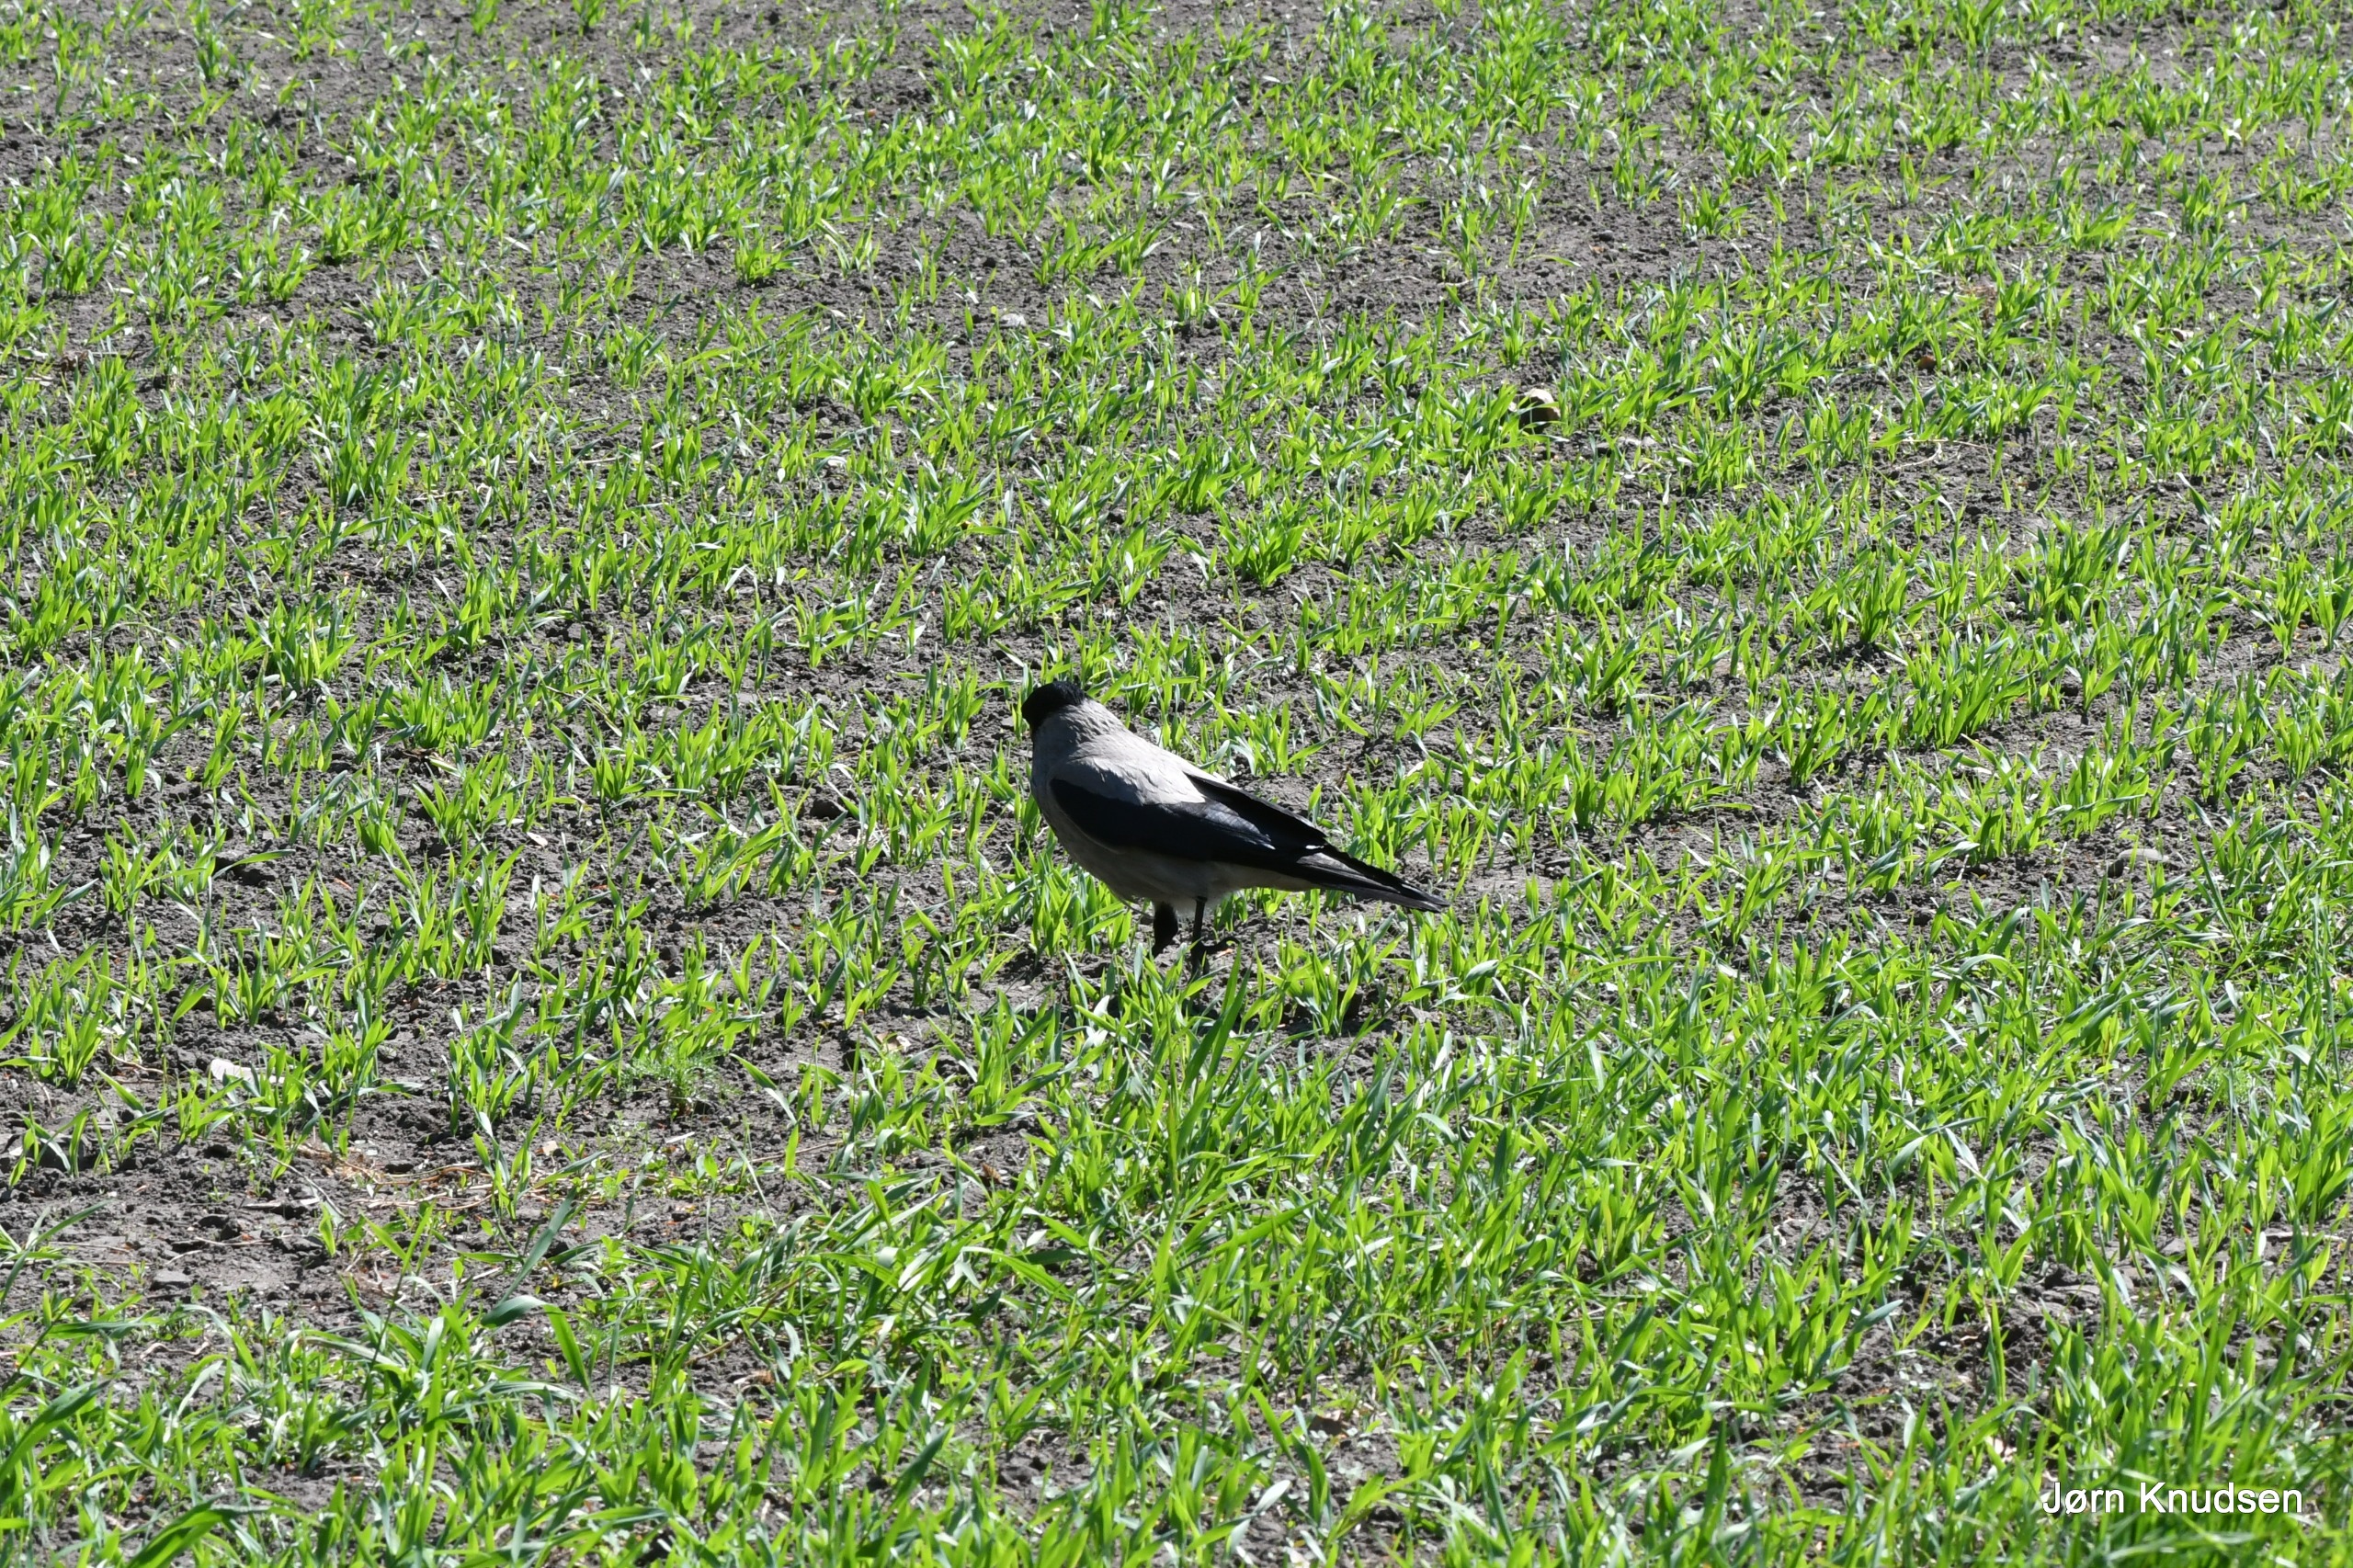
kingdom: Animalia
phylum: Chordata
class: Aves
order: Passeriformes
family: Corvidae
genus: Corvus
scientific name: Corvus cornix
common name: Gråkrage
